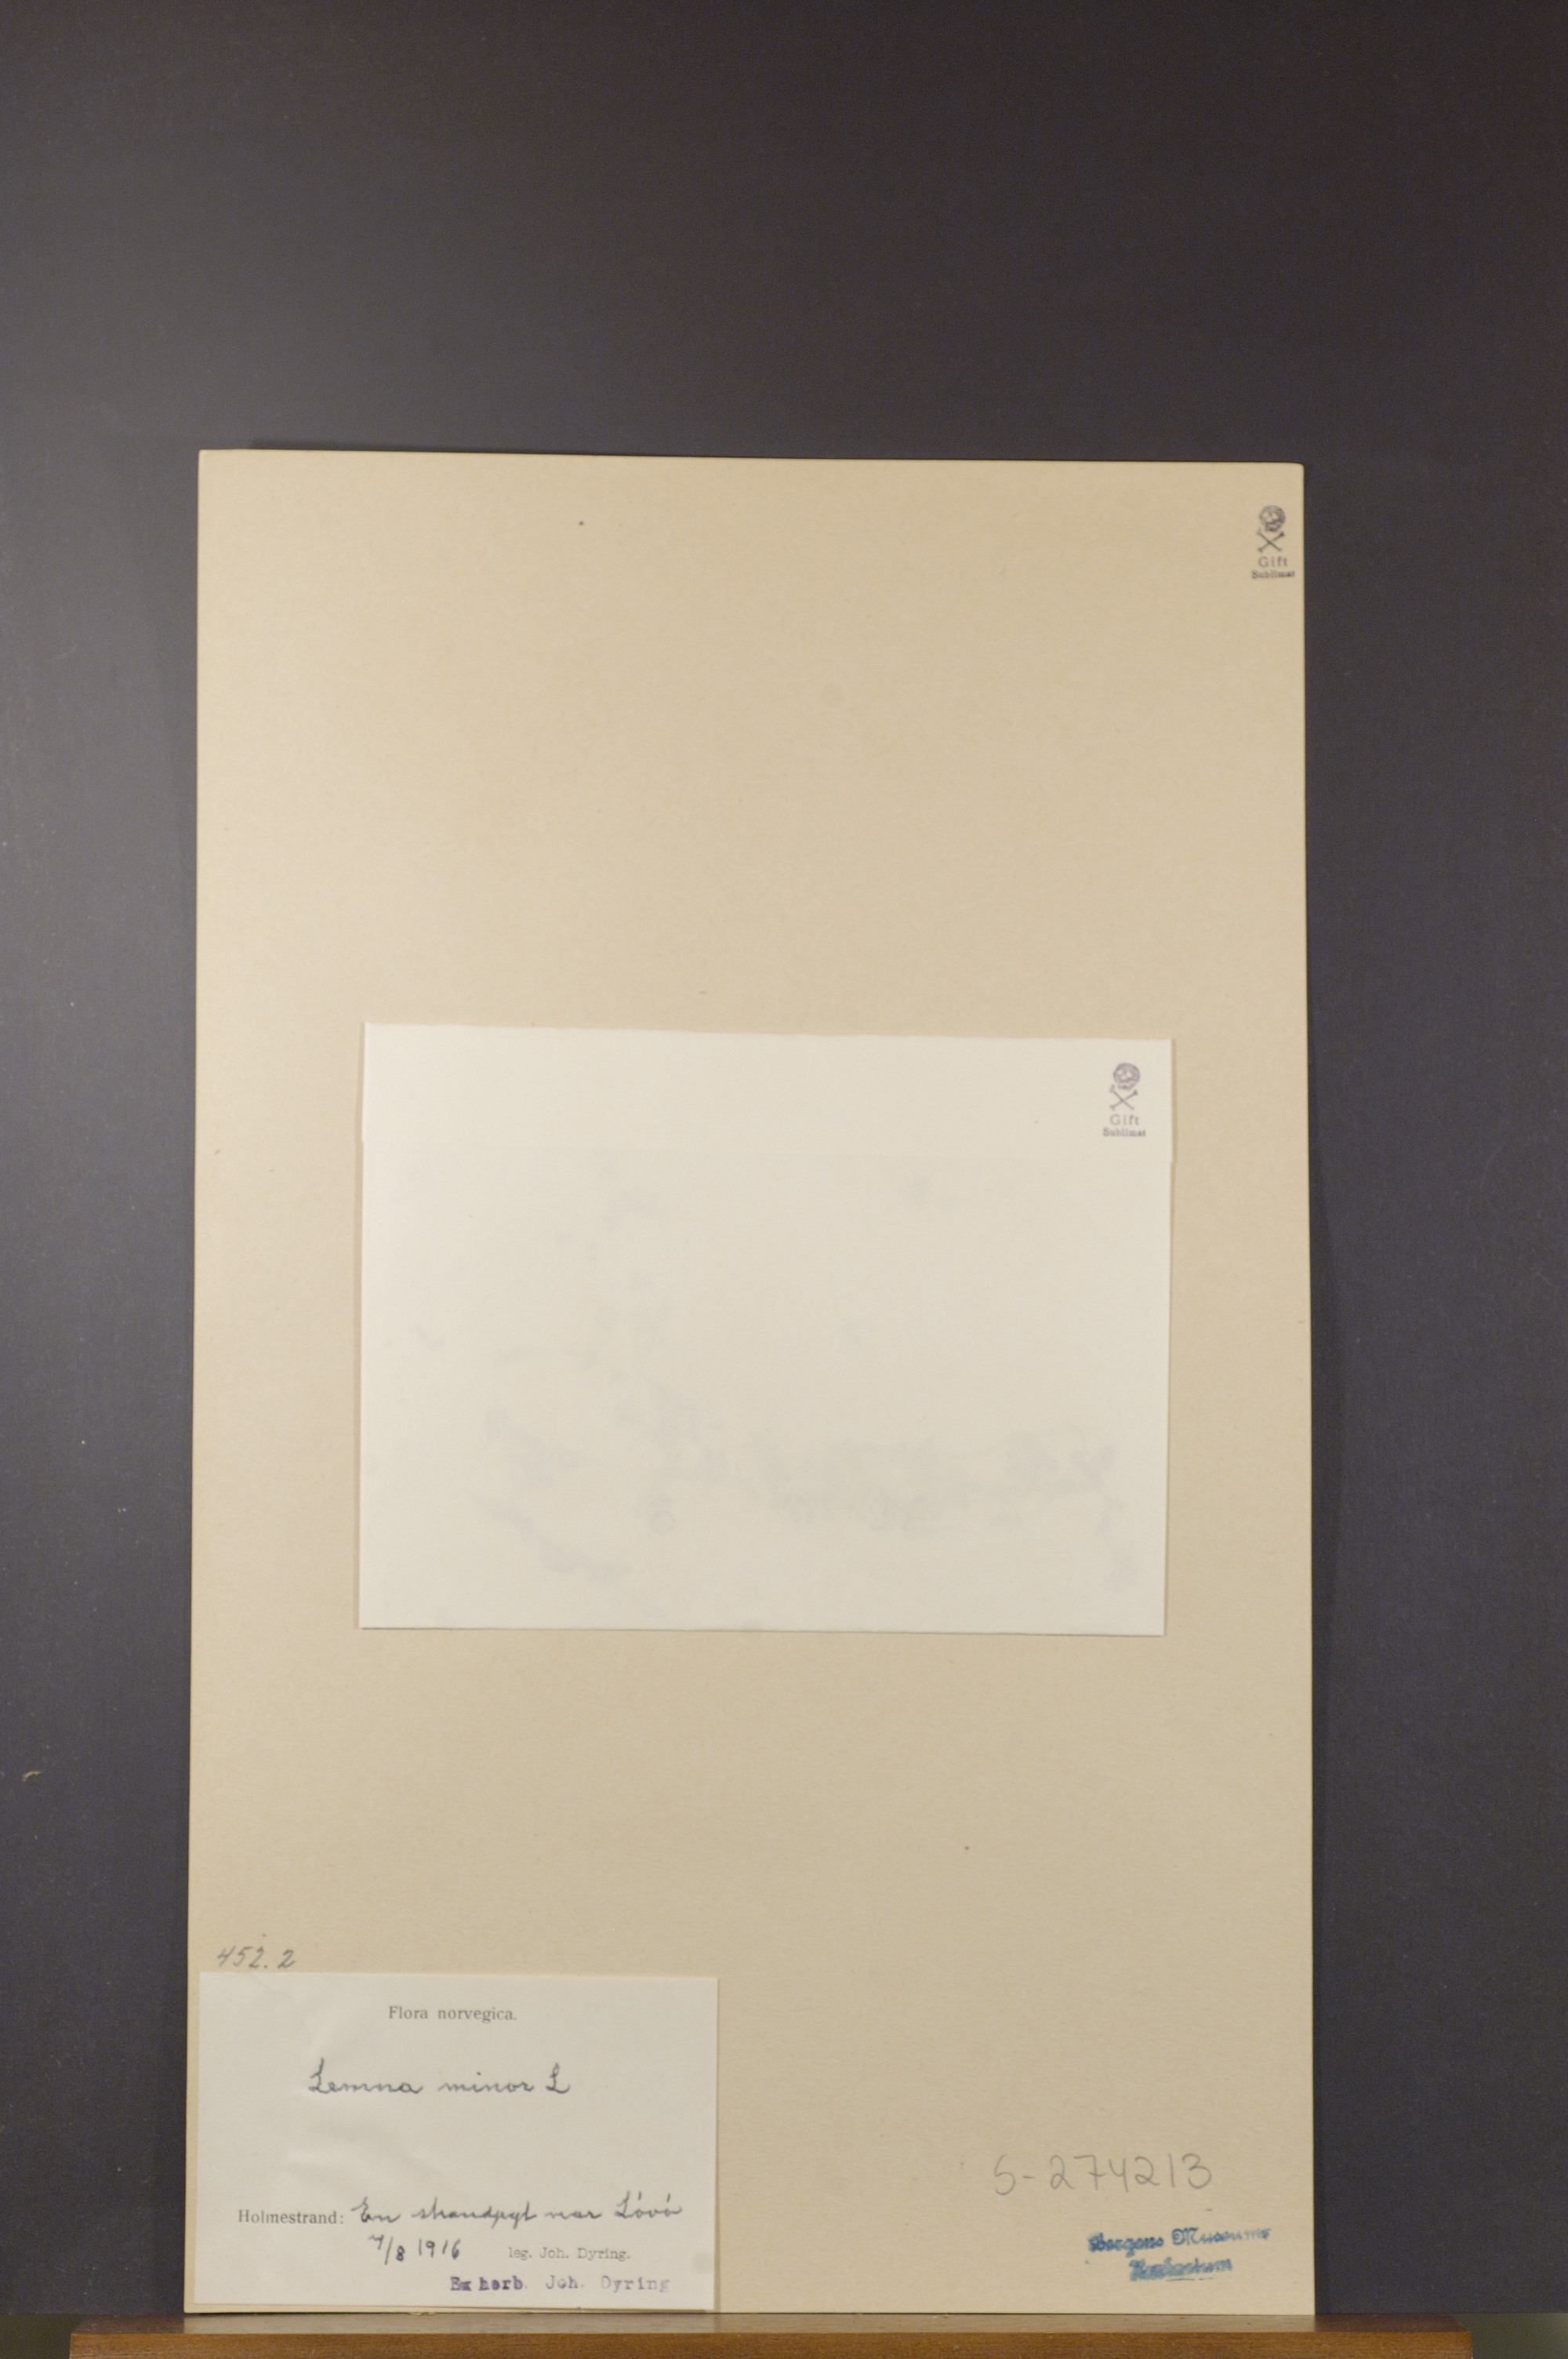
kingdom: Plantae
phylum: Tracheophyta
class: Liliopsida
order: Alismatales
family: Araceae
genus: Lemna
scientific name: Lemna minor
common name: Common duckweed
